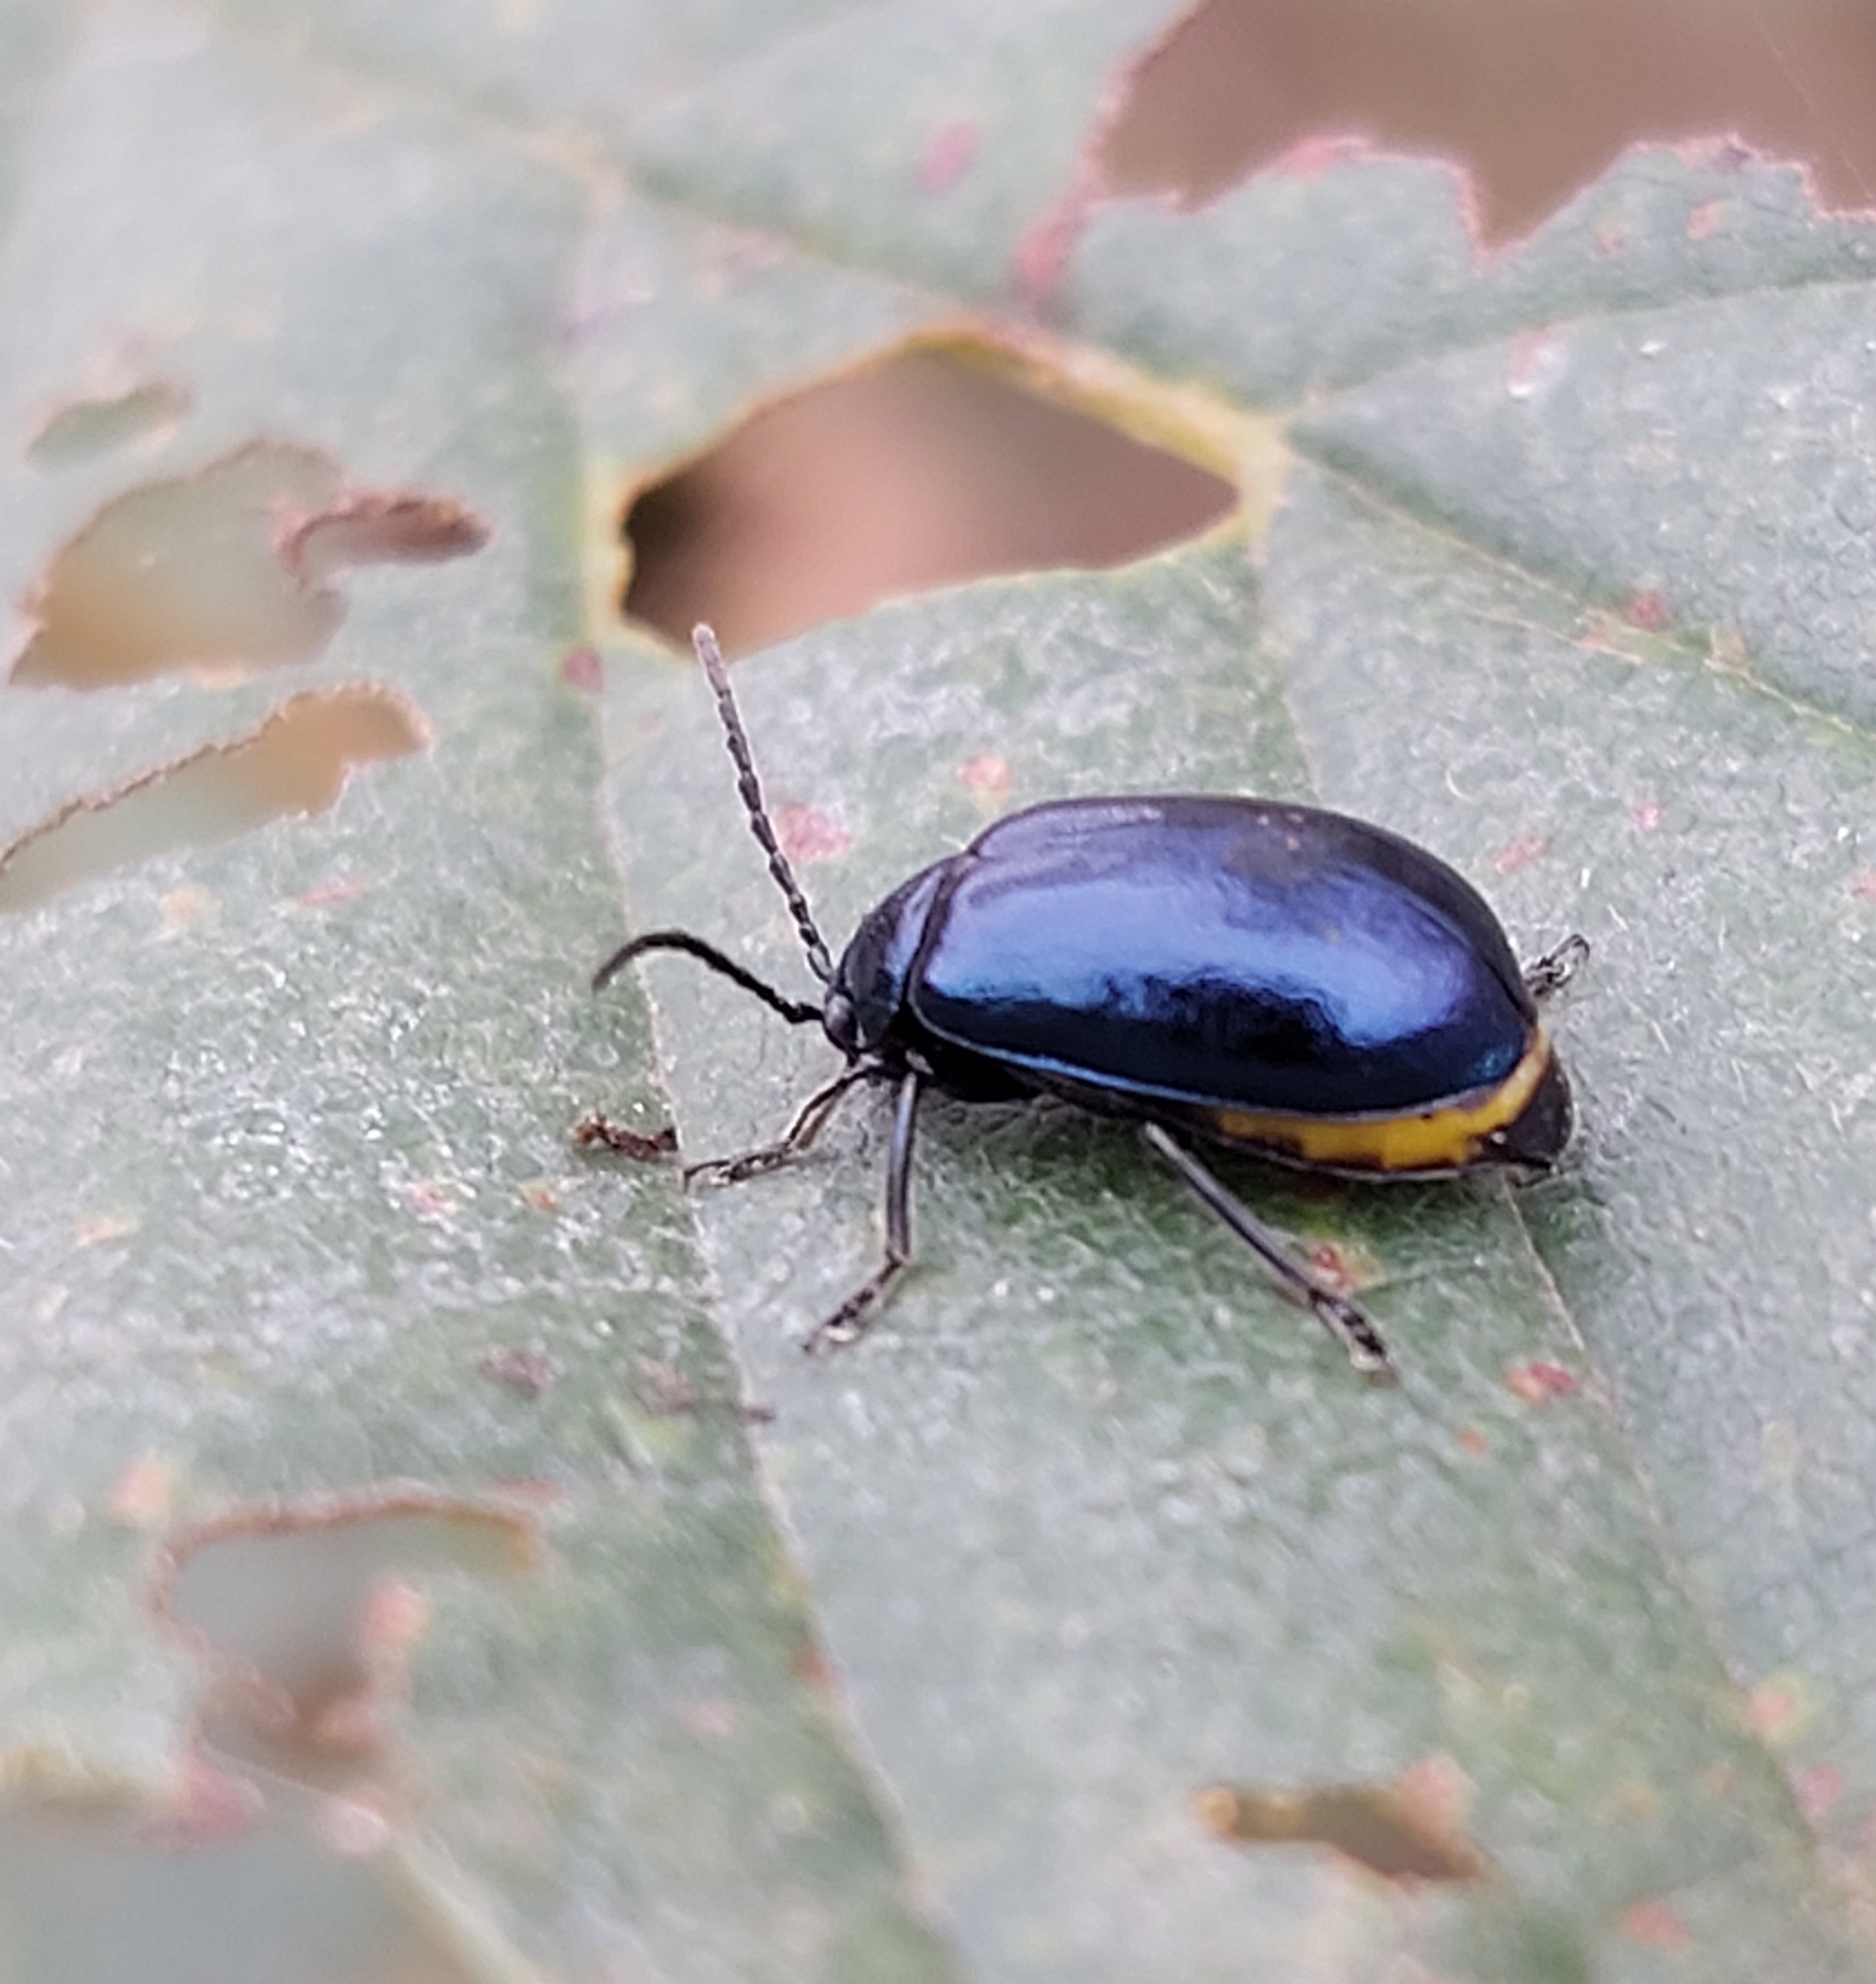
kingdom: Animalia
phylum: Arthropoda
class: Insecta
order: Coleoptera
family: Chrysomelidae
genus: Agelastica
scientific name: Agelastica alni
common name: Ellebladbille
